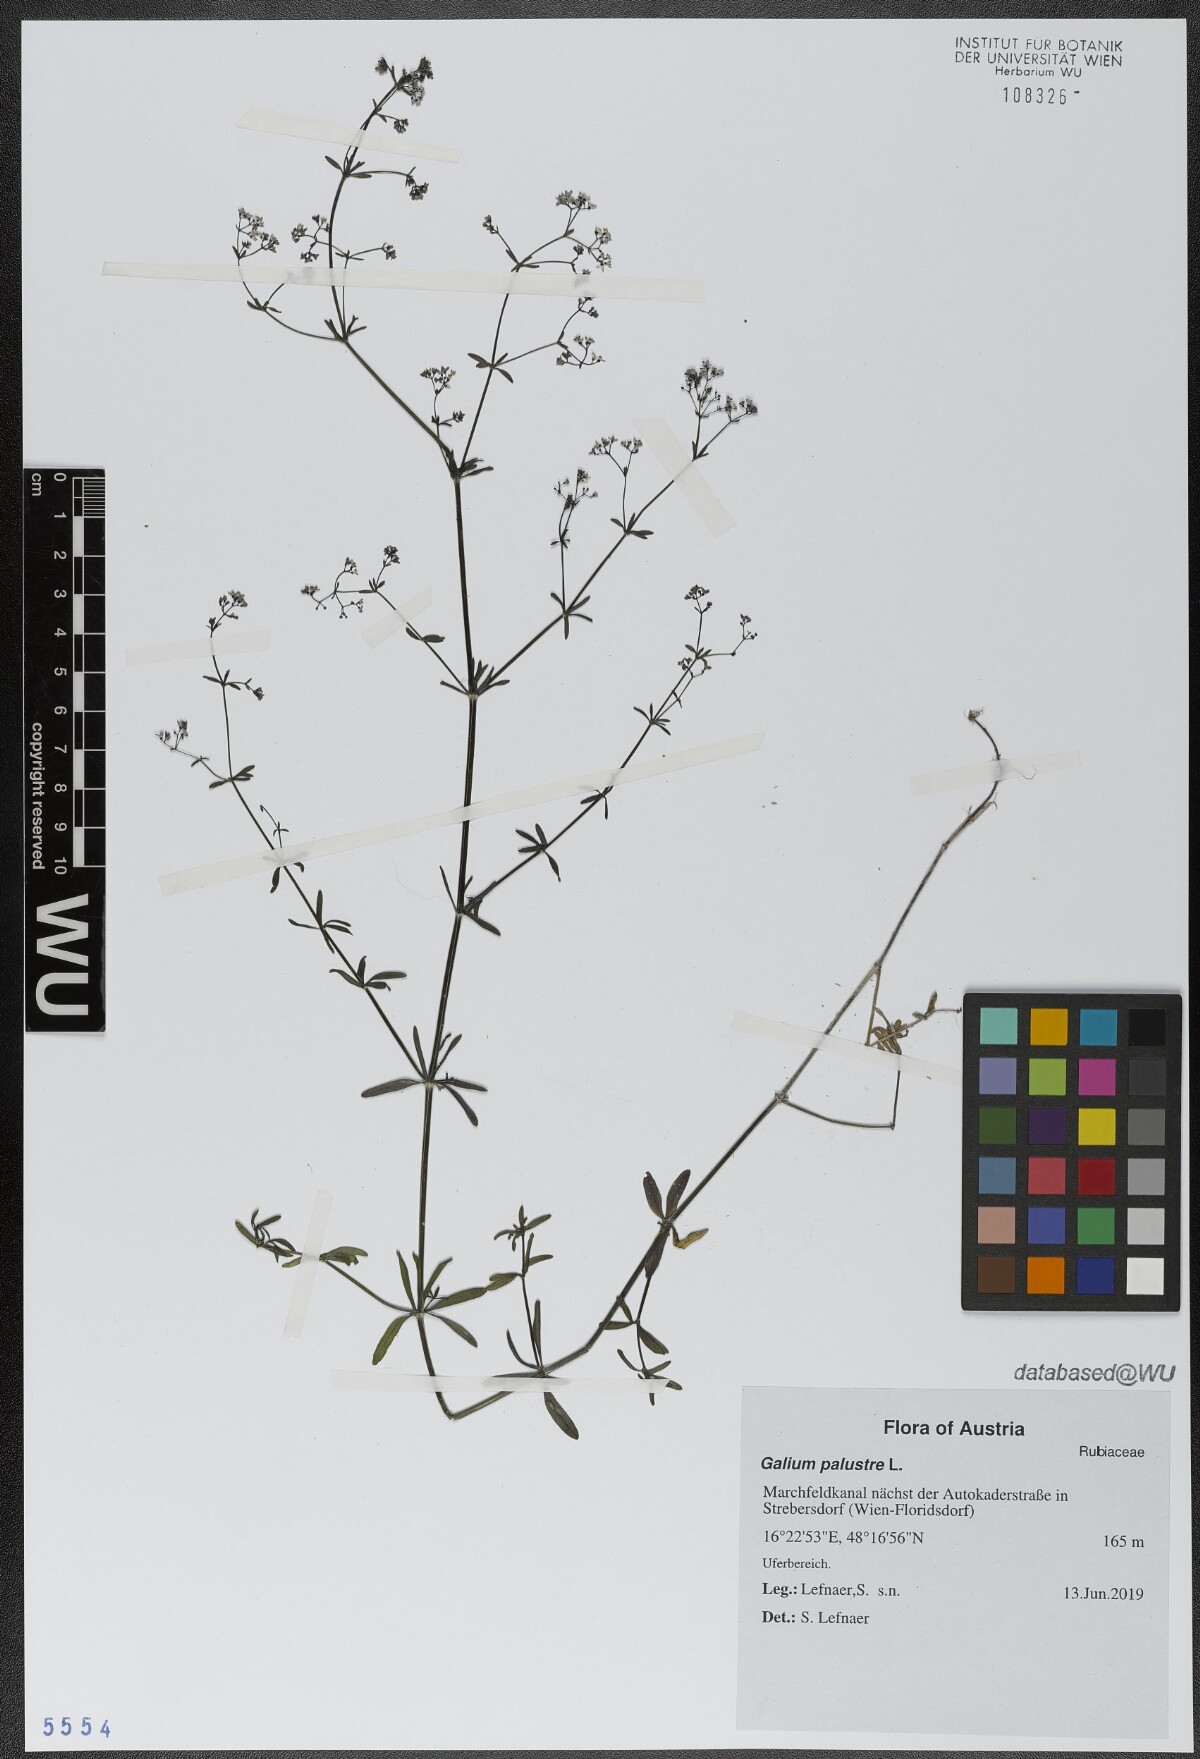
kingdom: Plantae
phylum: Tracheophyta
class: Magnoliopsida
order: Gentianales
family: Rubiaceae
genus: Galium
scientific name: Galium palustre
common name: Common marsh-bedstraw
